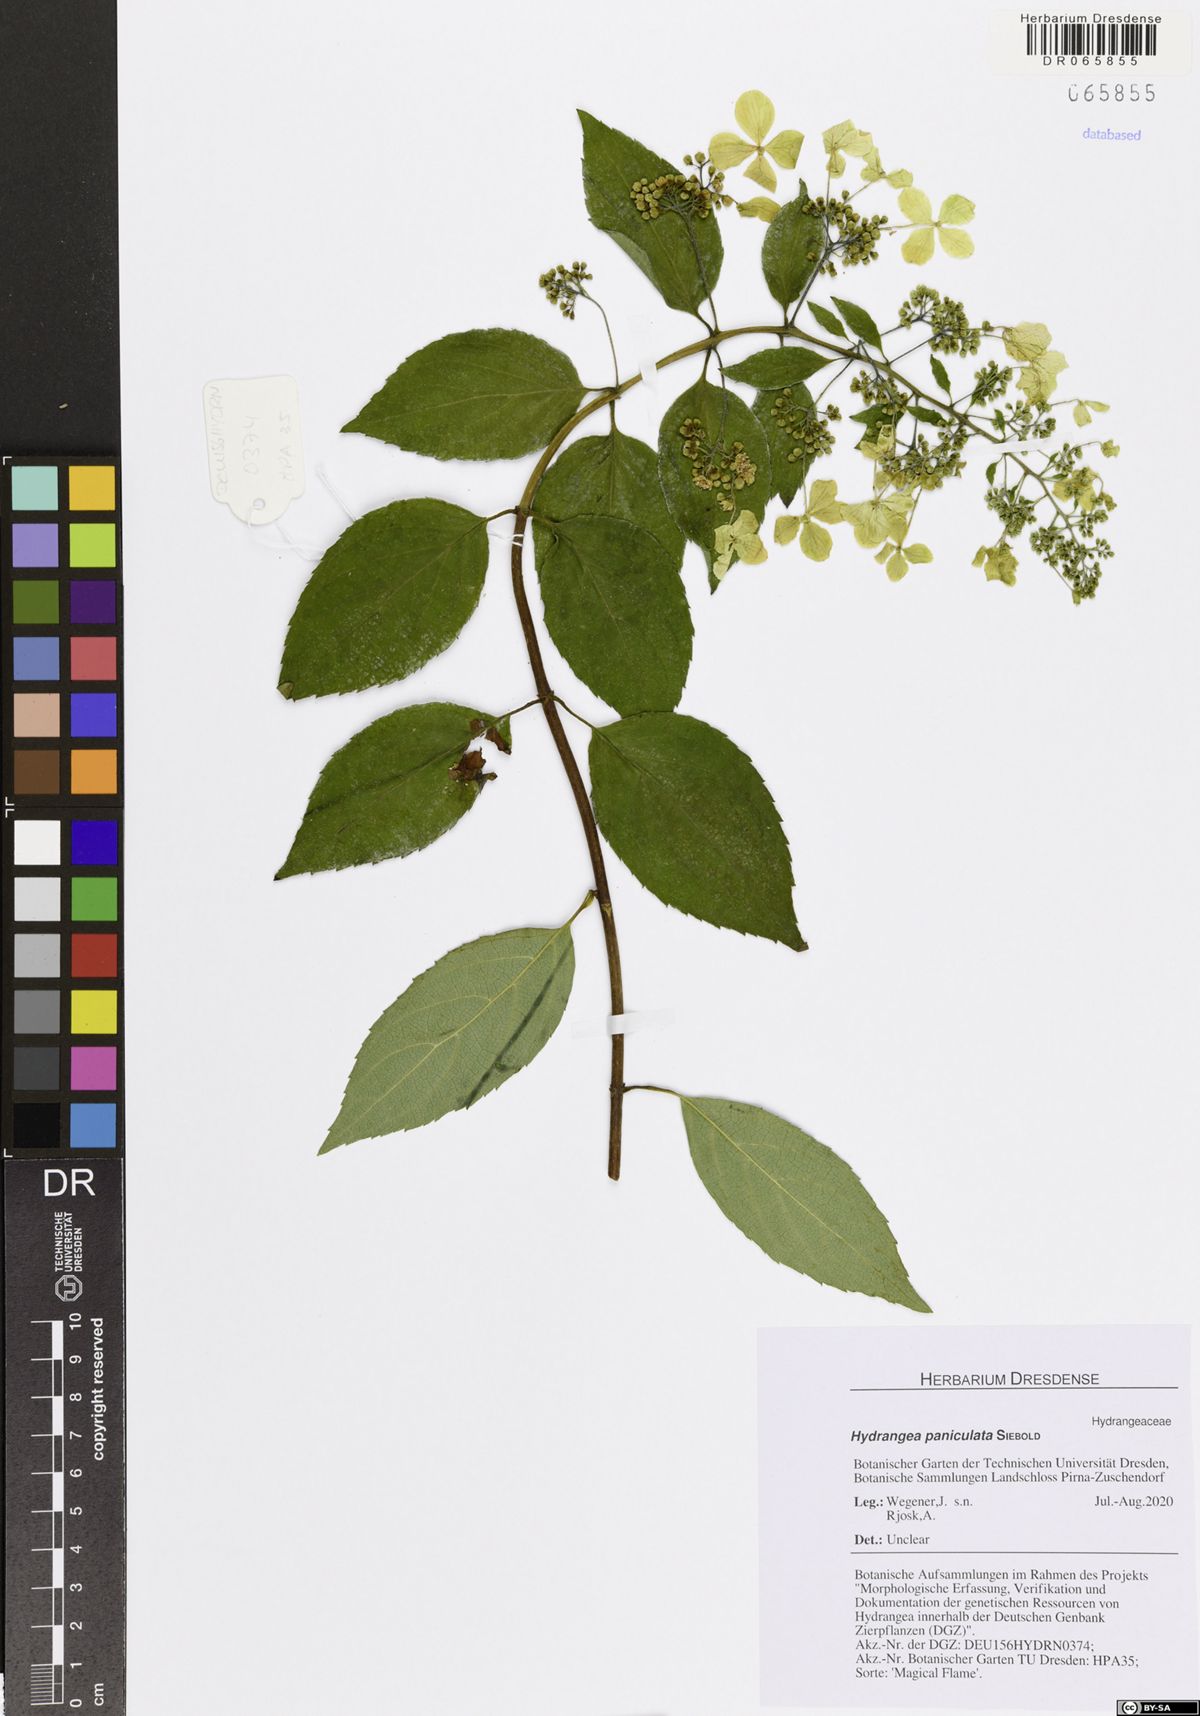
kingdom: Plantae
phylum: Tracheophyta
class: Magnoliopsida
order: Cornales
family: Hydrangeaceae
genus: Hydrangea
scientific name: Hydrangea paniculata
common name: Panicled hydrangea
